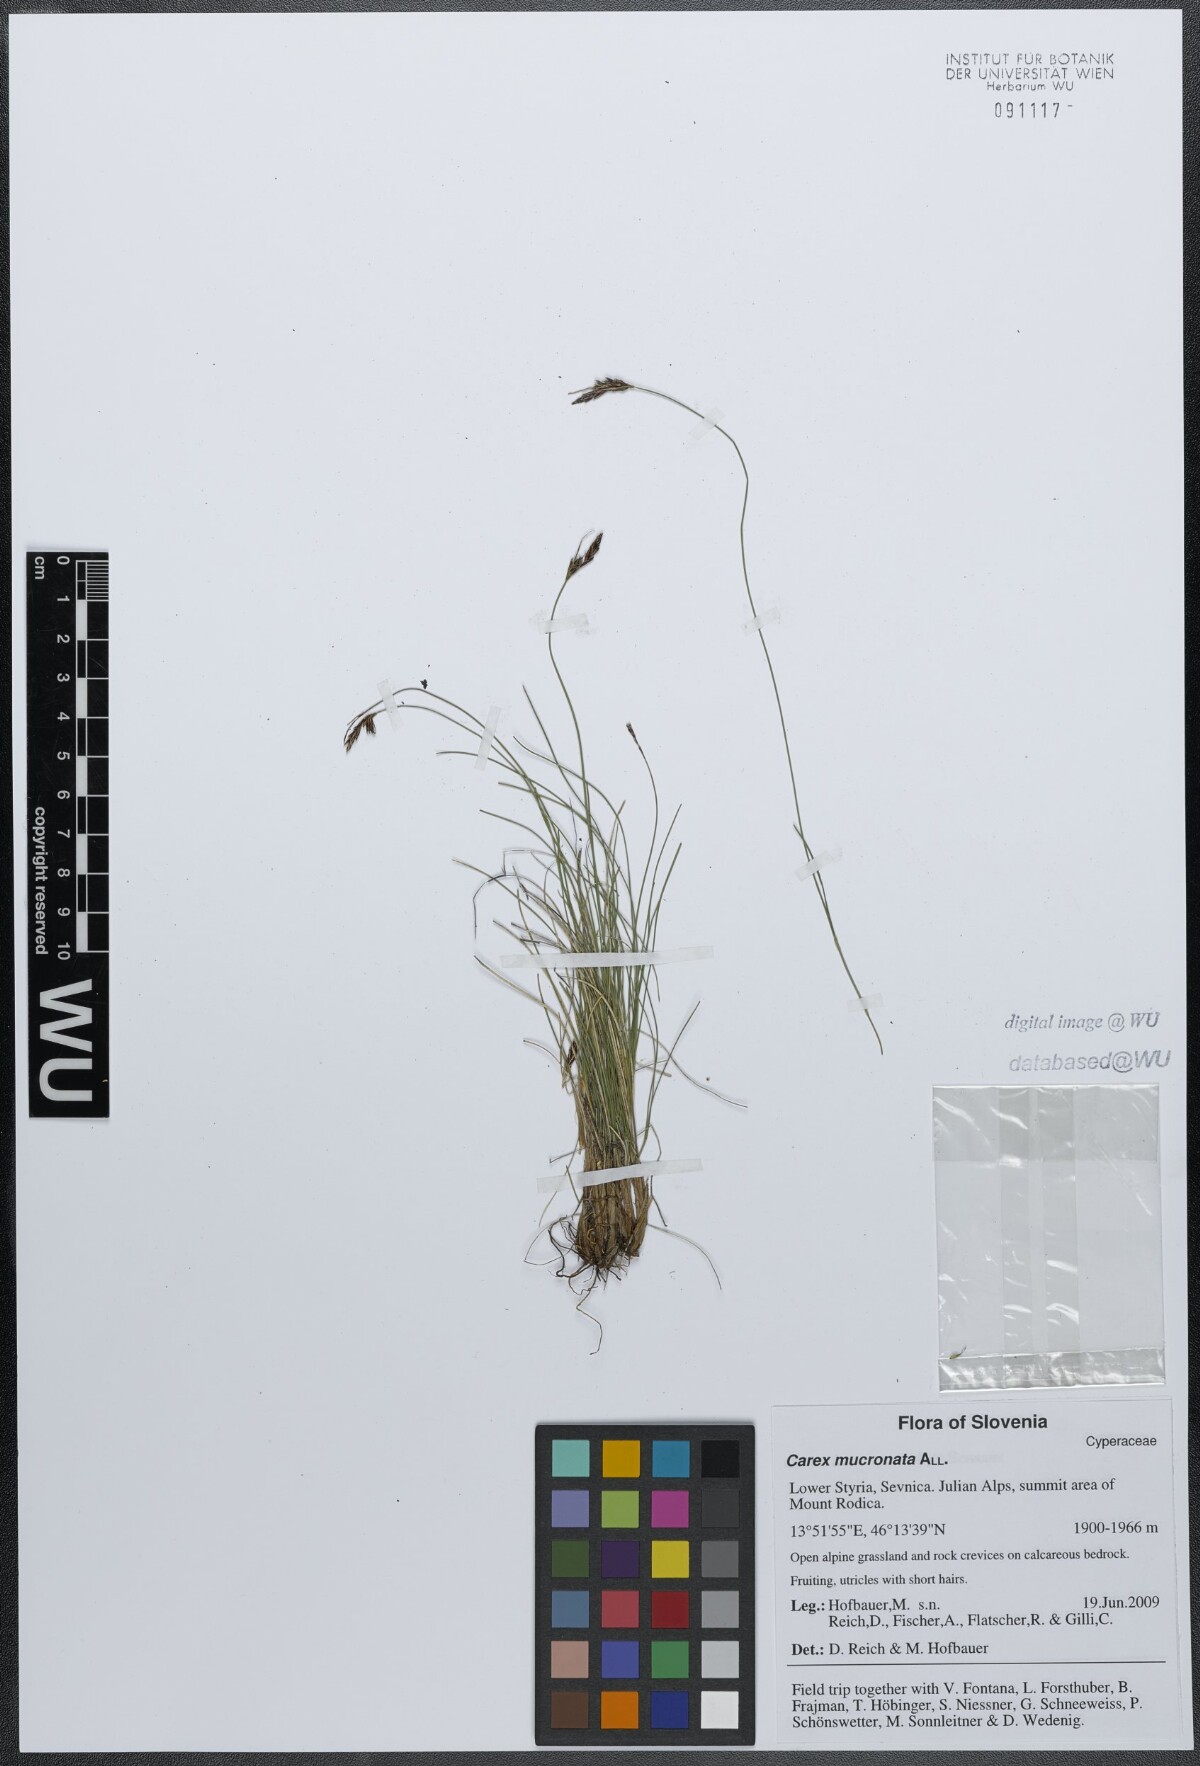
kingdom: Plantae
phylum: Tracheophyta
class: Liliopsida
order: Poales
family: Cyperaceae
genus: Carex
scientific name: Carex mucronata
